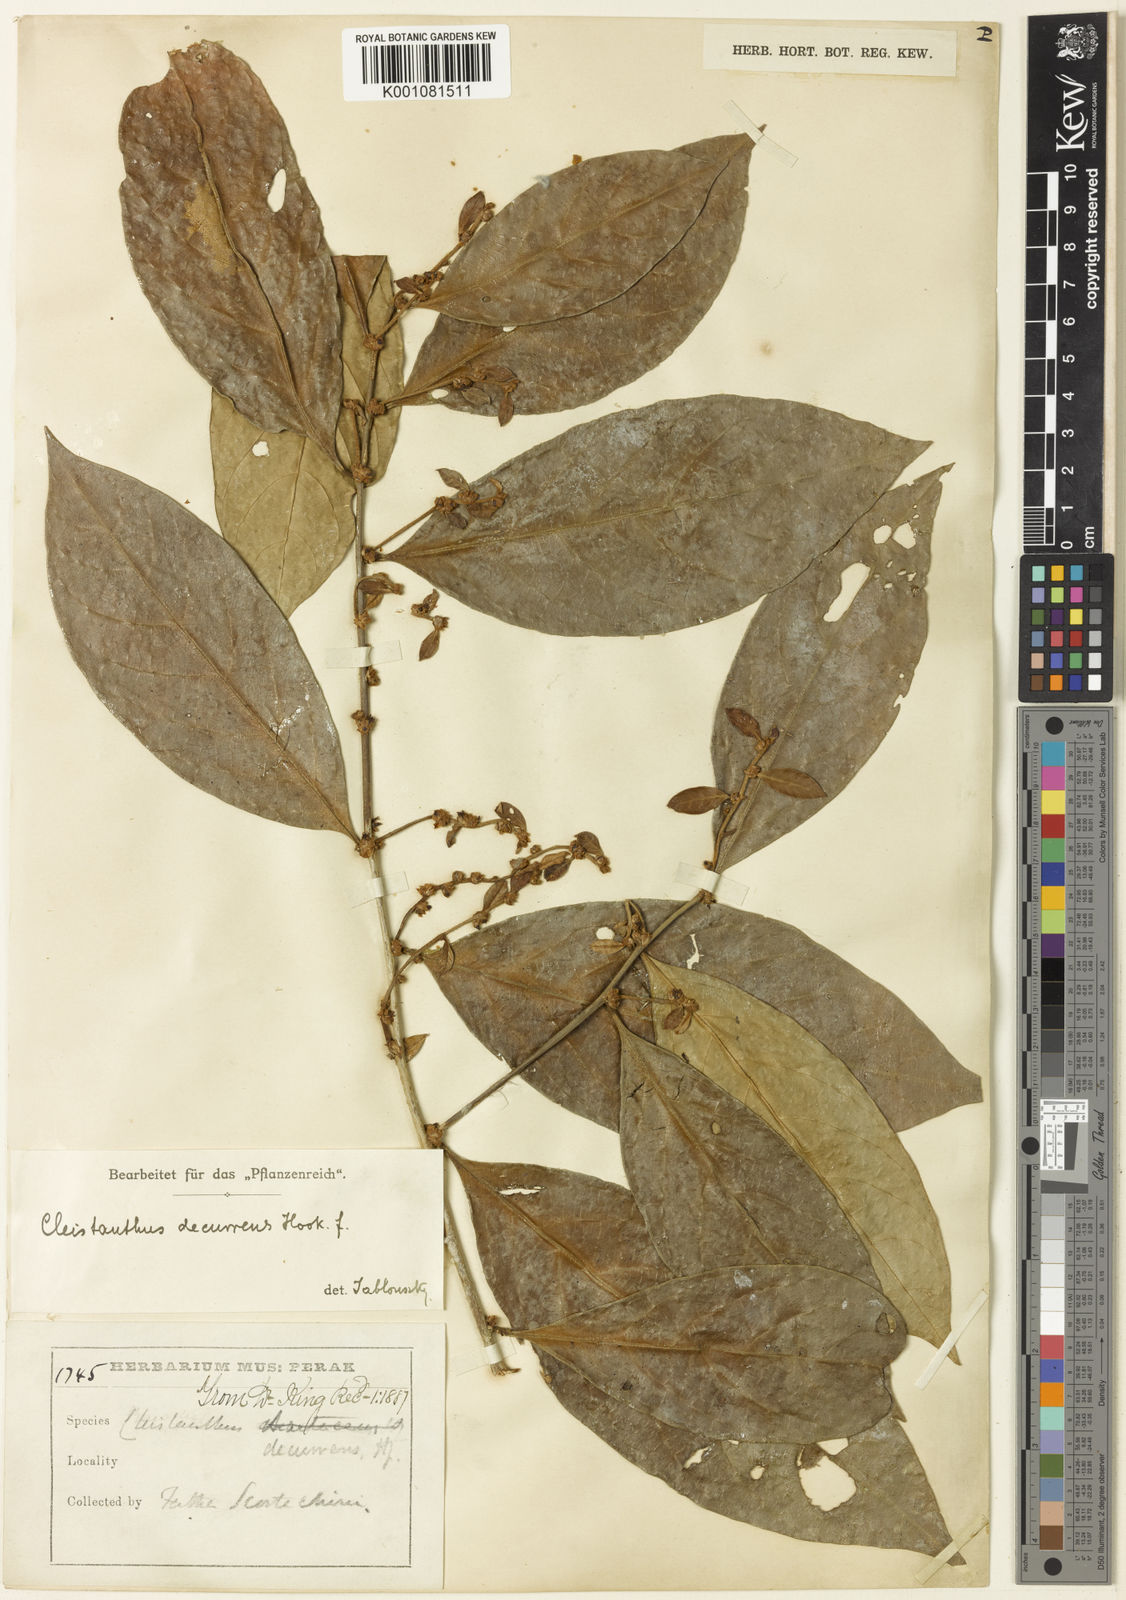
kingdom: Plantae
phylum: Tracheophyta
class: Magnoliopsida
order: Malpighiales
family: Phyllanthaceae
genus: Cleistanthus
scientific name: Cleistanthus decurrens
